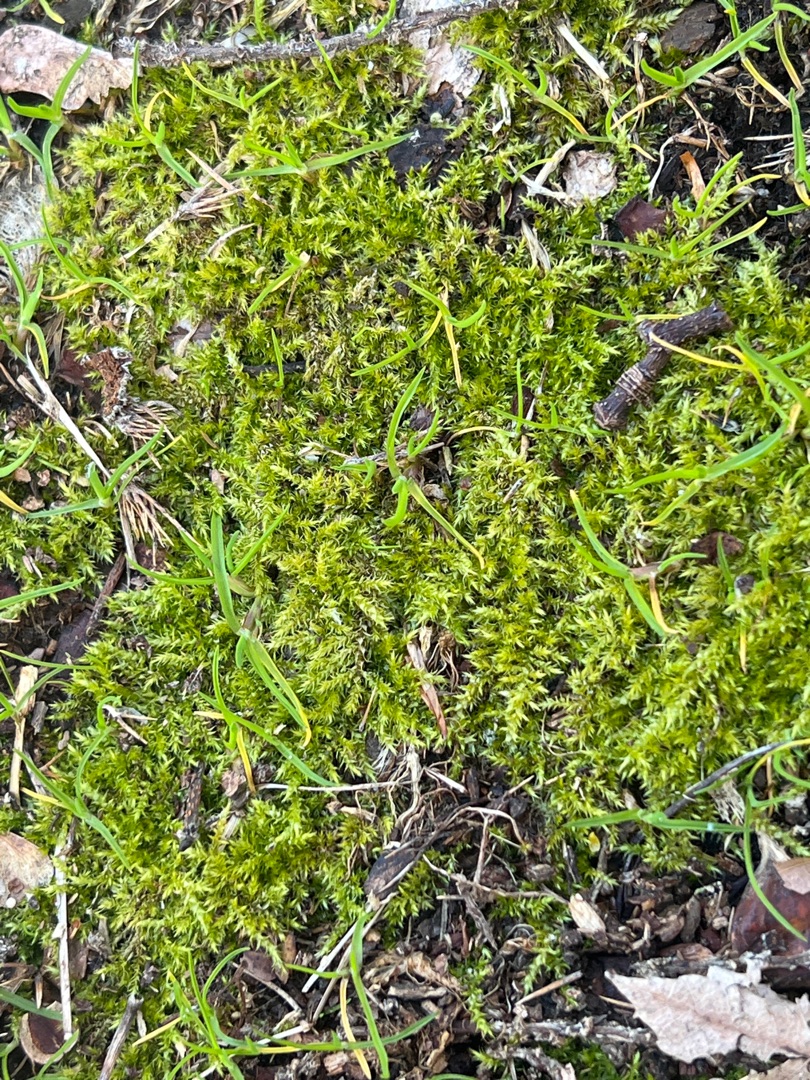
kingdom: Plantae
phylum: Bryophyta
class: Bryopsida
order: Hypnales
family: Brachytheciaceae
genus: Kindbergia
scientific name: Kindbergia praelonga
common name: Forskelligbladet vortetand
